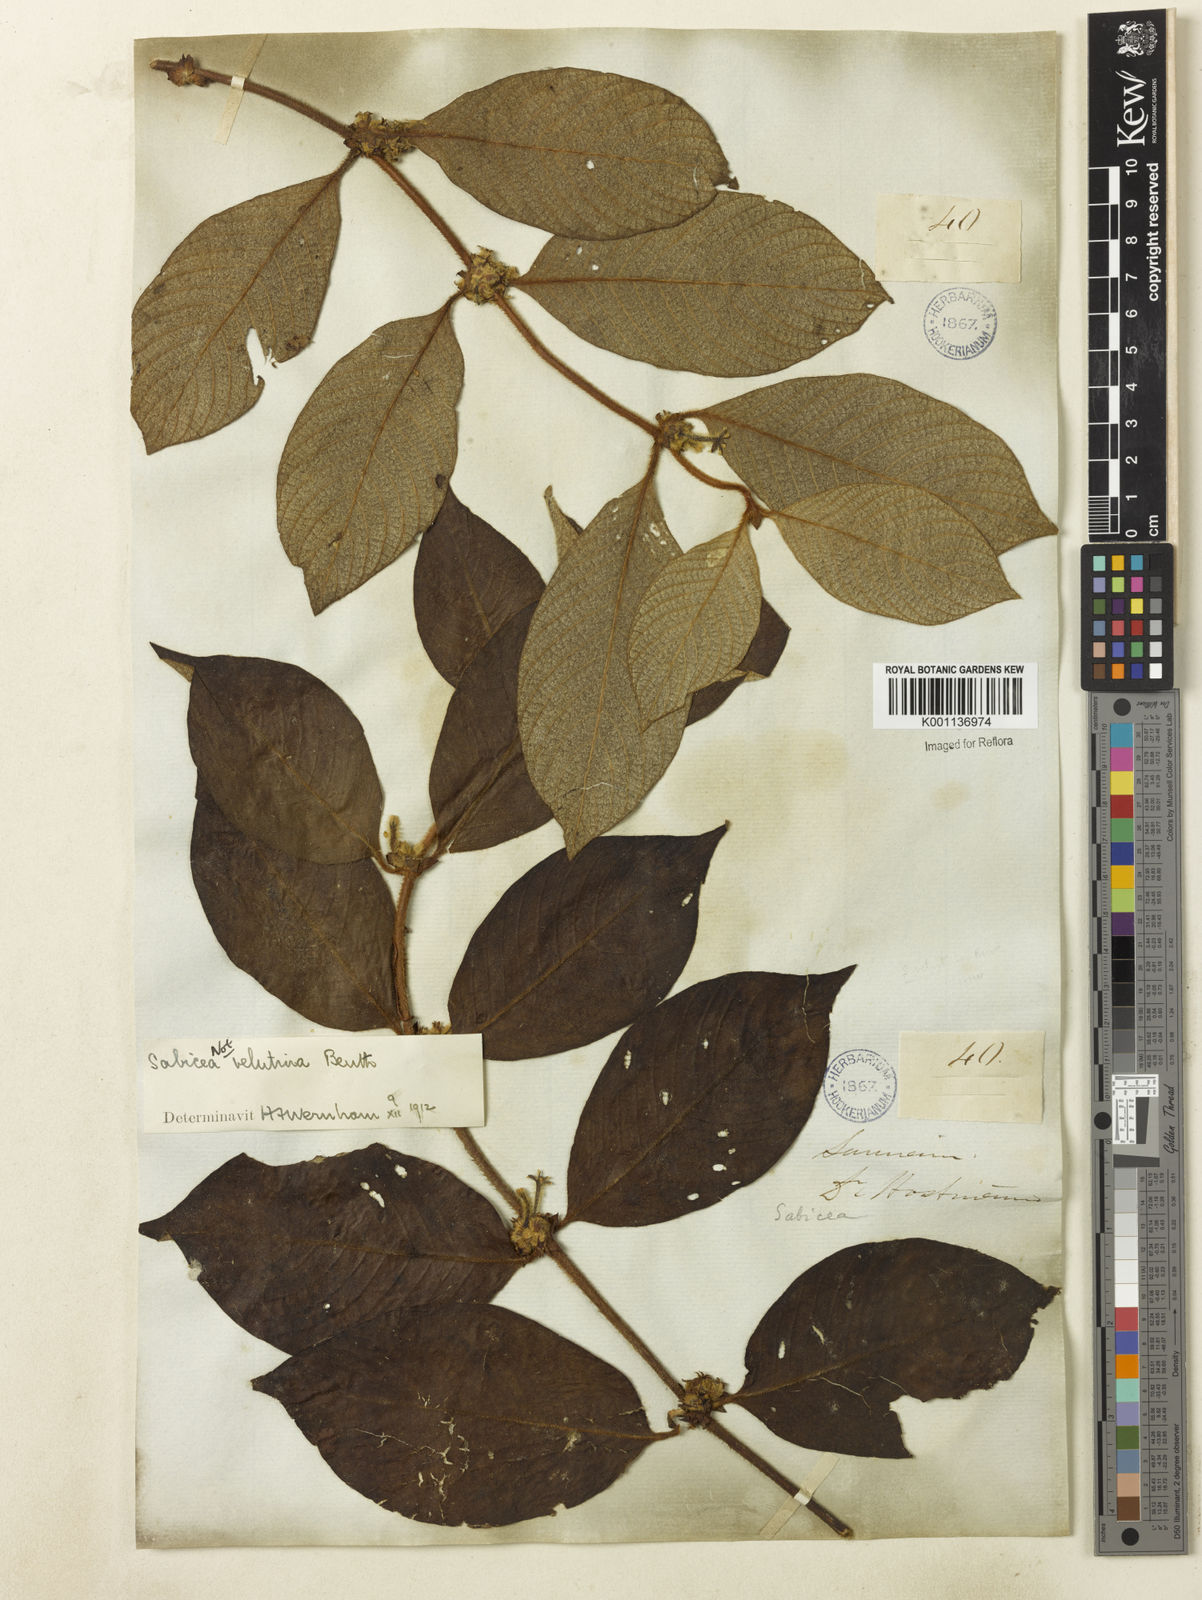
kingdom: Plantae
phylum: Tracheophyta
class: Magnoliopsida
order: Gentianales
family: Rubiaceae
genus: Sabicea
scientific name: Sabicea velutina
